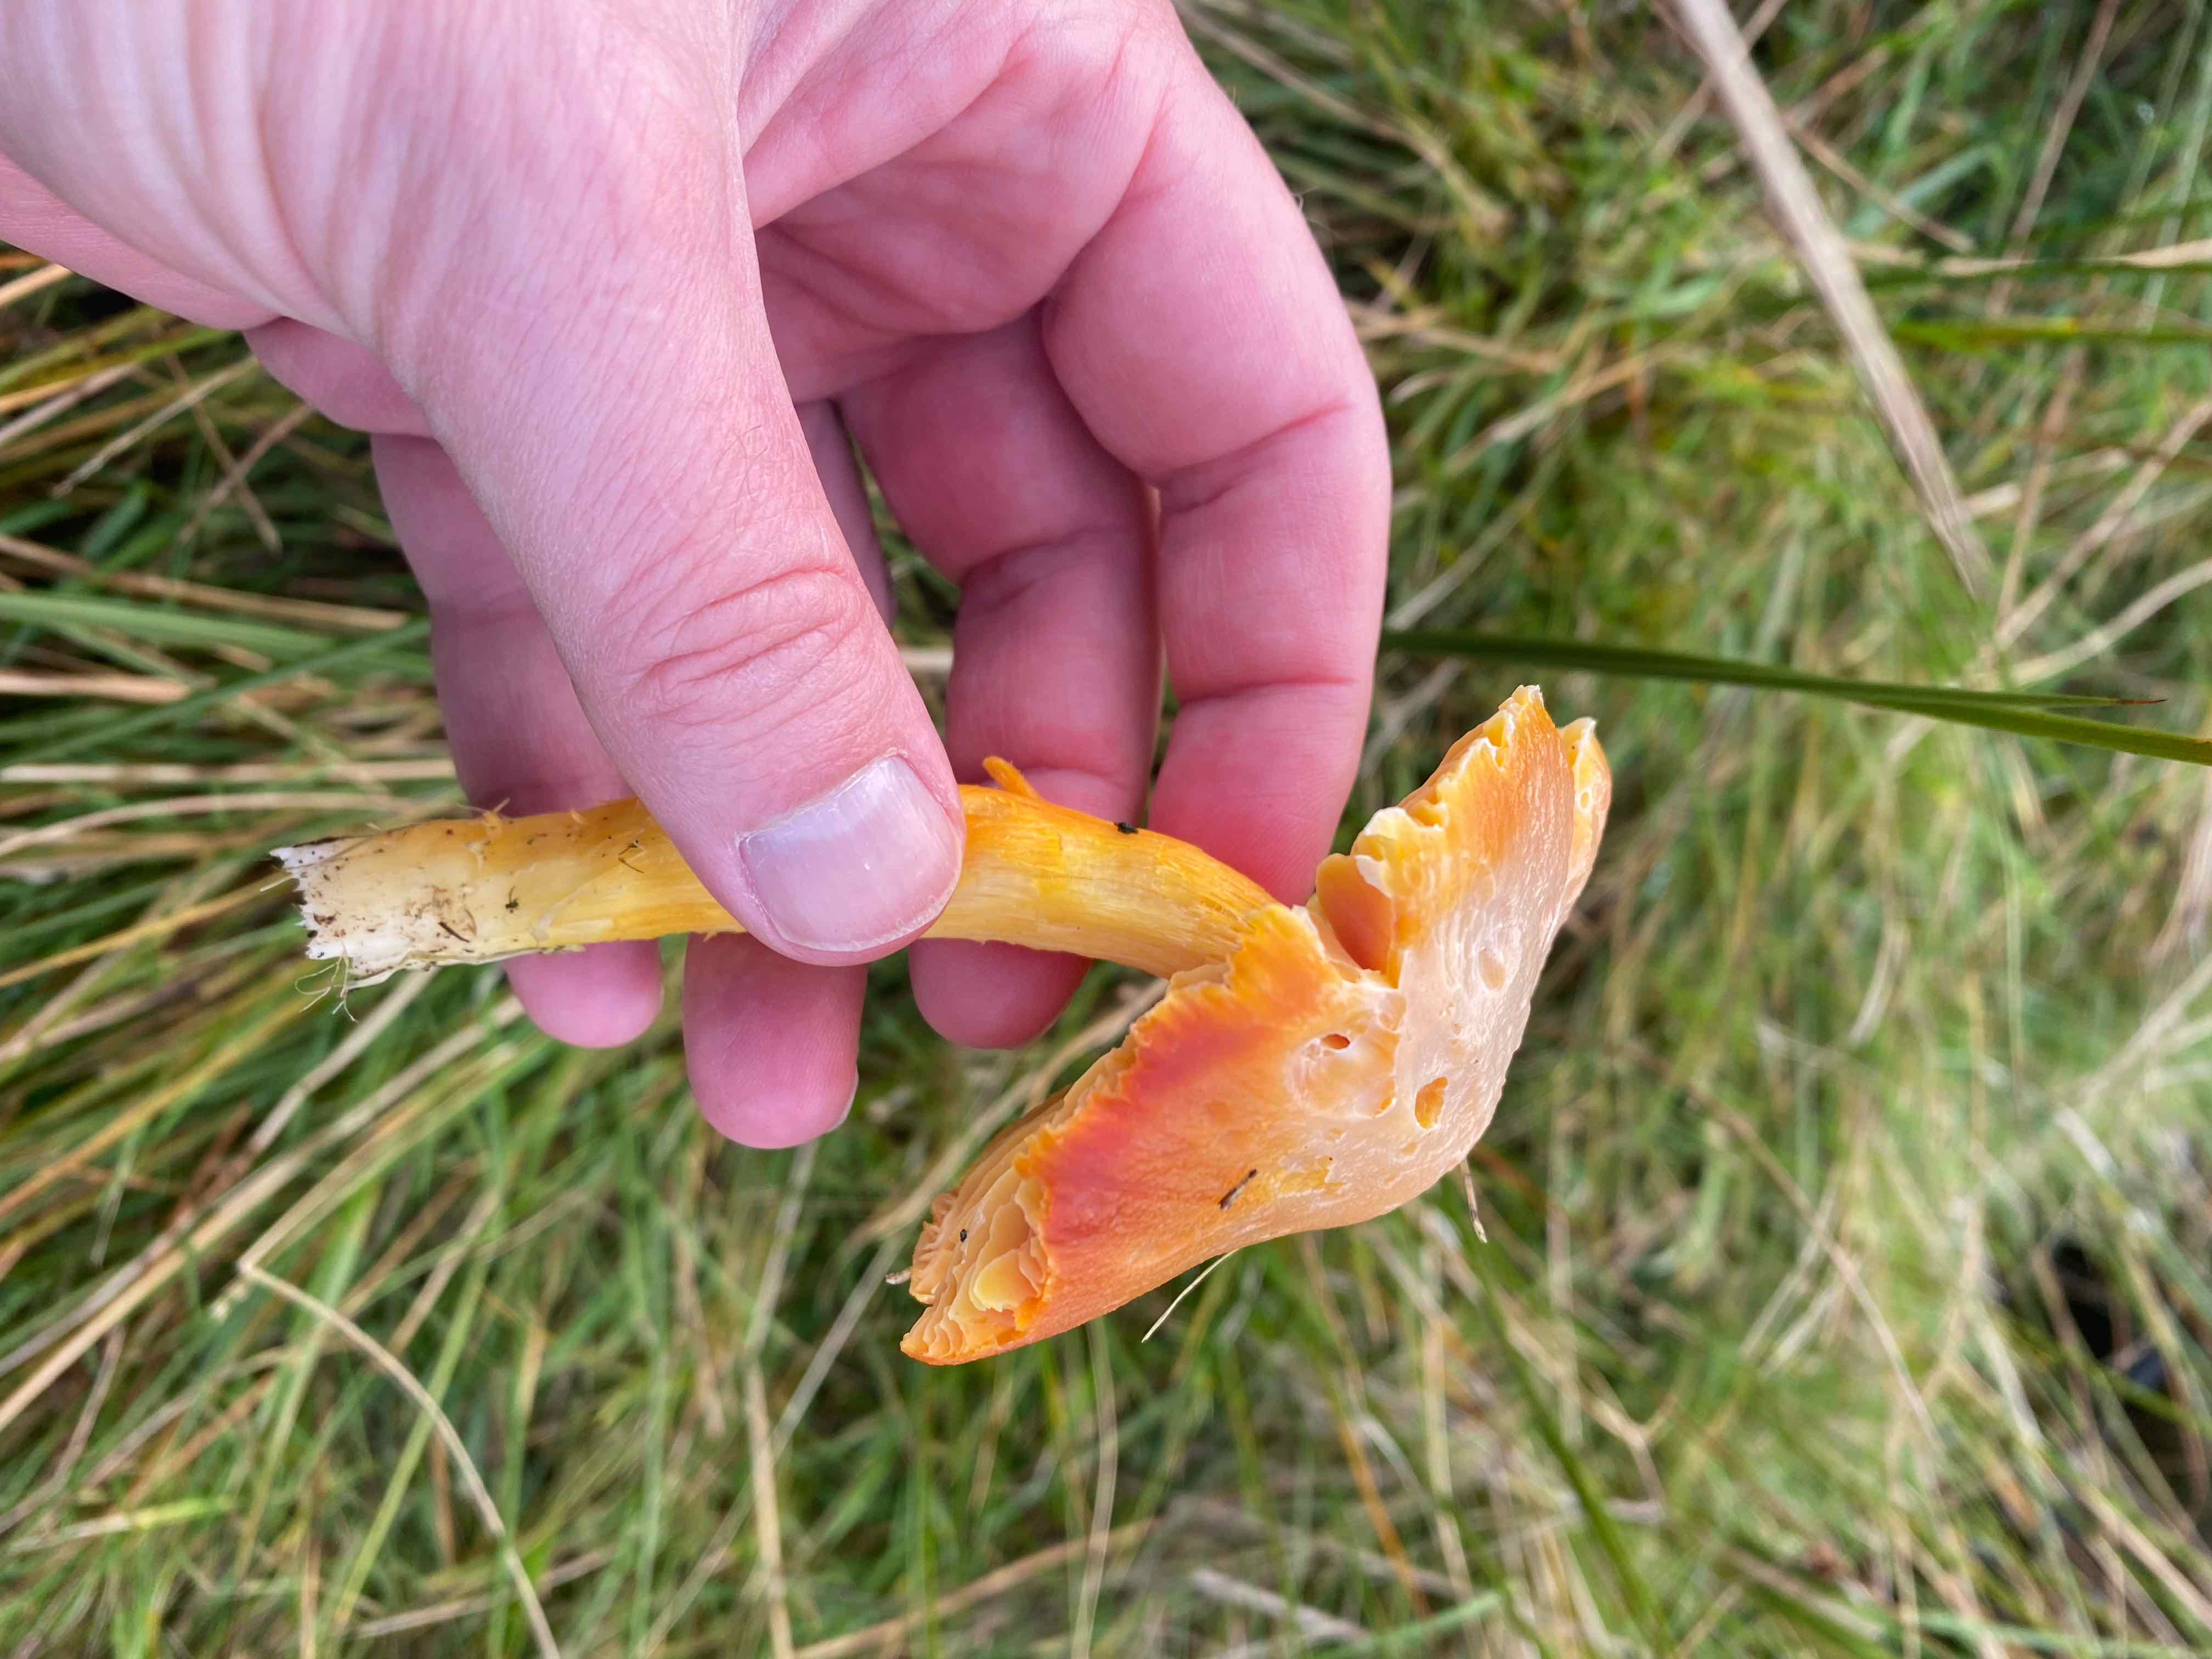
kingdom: Fungi
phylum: Basidiomycota
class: Agaricomycetes
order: Agaricales
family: Hygrophoraceae
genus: Hygrocybe
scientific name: Hygrocybe punicea
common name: skarlagen-vokshat
